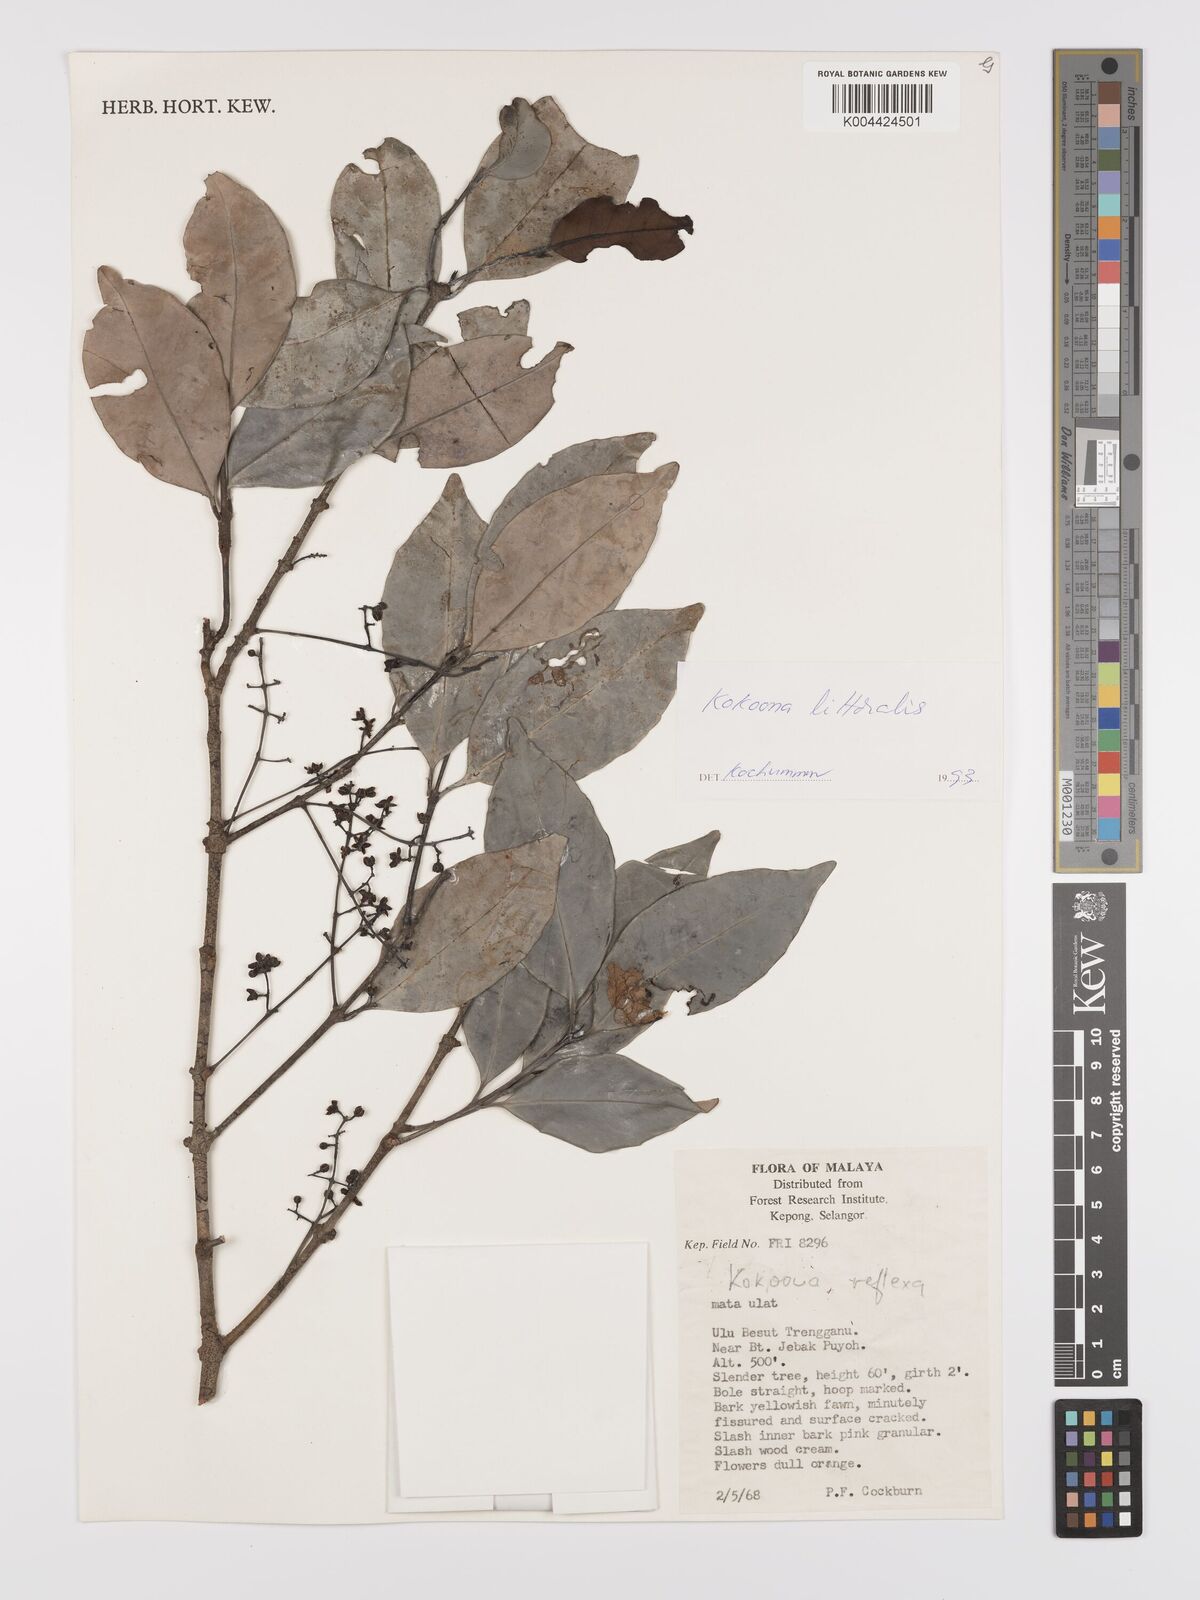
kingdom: Plantae
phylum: Tracheophyta
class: Magnoliopsida
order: Celastrales
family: Celastraceae
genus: Kokoona
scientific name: Kokoona littoralis
